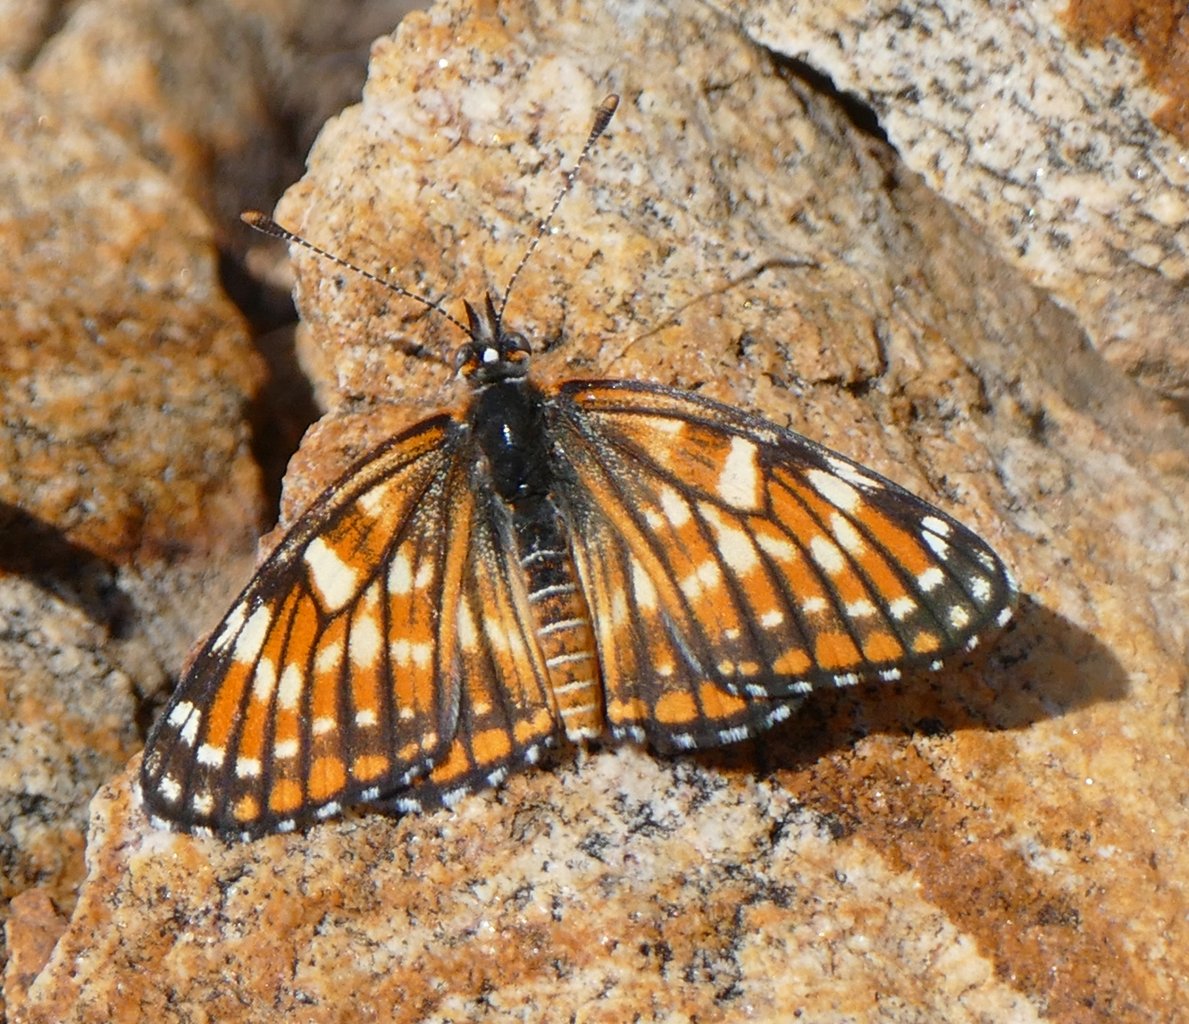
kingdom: Animalia
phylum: Arthropoda
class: Insecta
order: Lepidoptera
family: Nymphalidae
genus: Thessalia
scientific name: Thessalia leanira
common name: Fulvia Checkerspot
